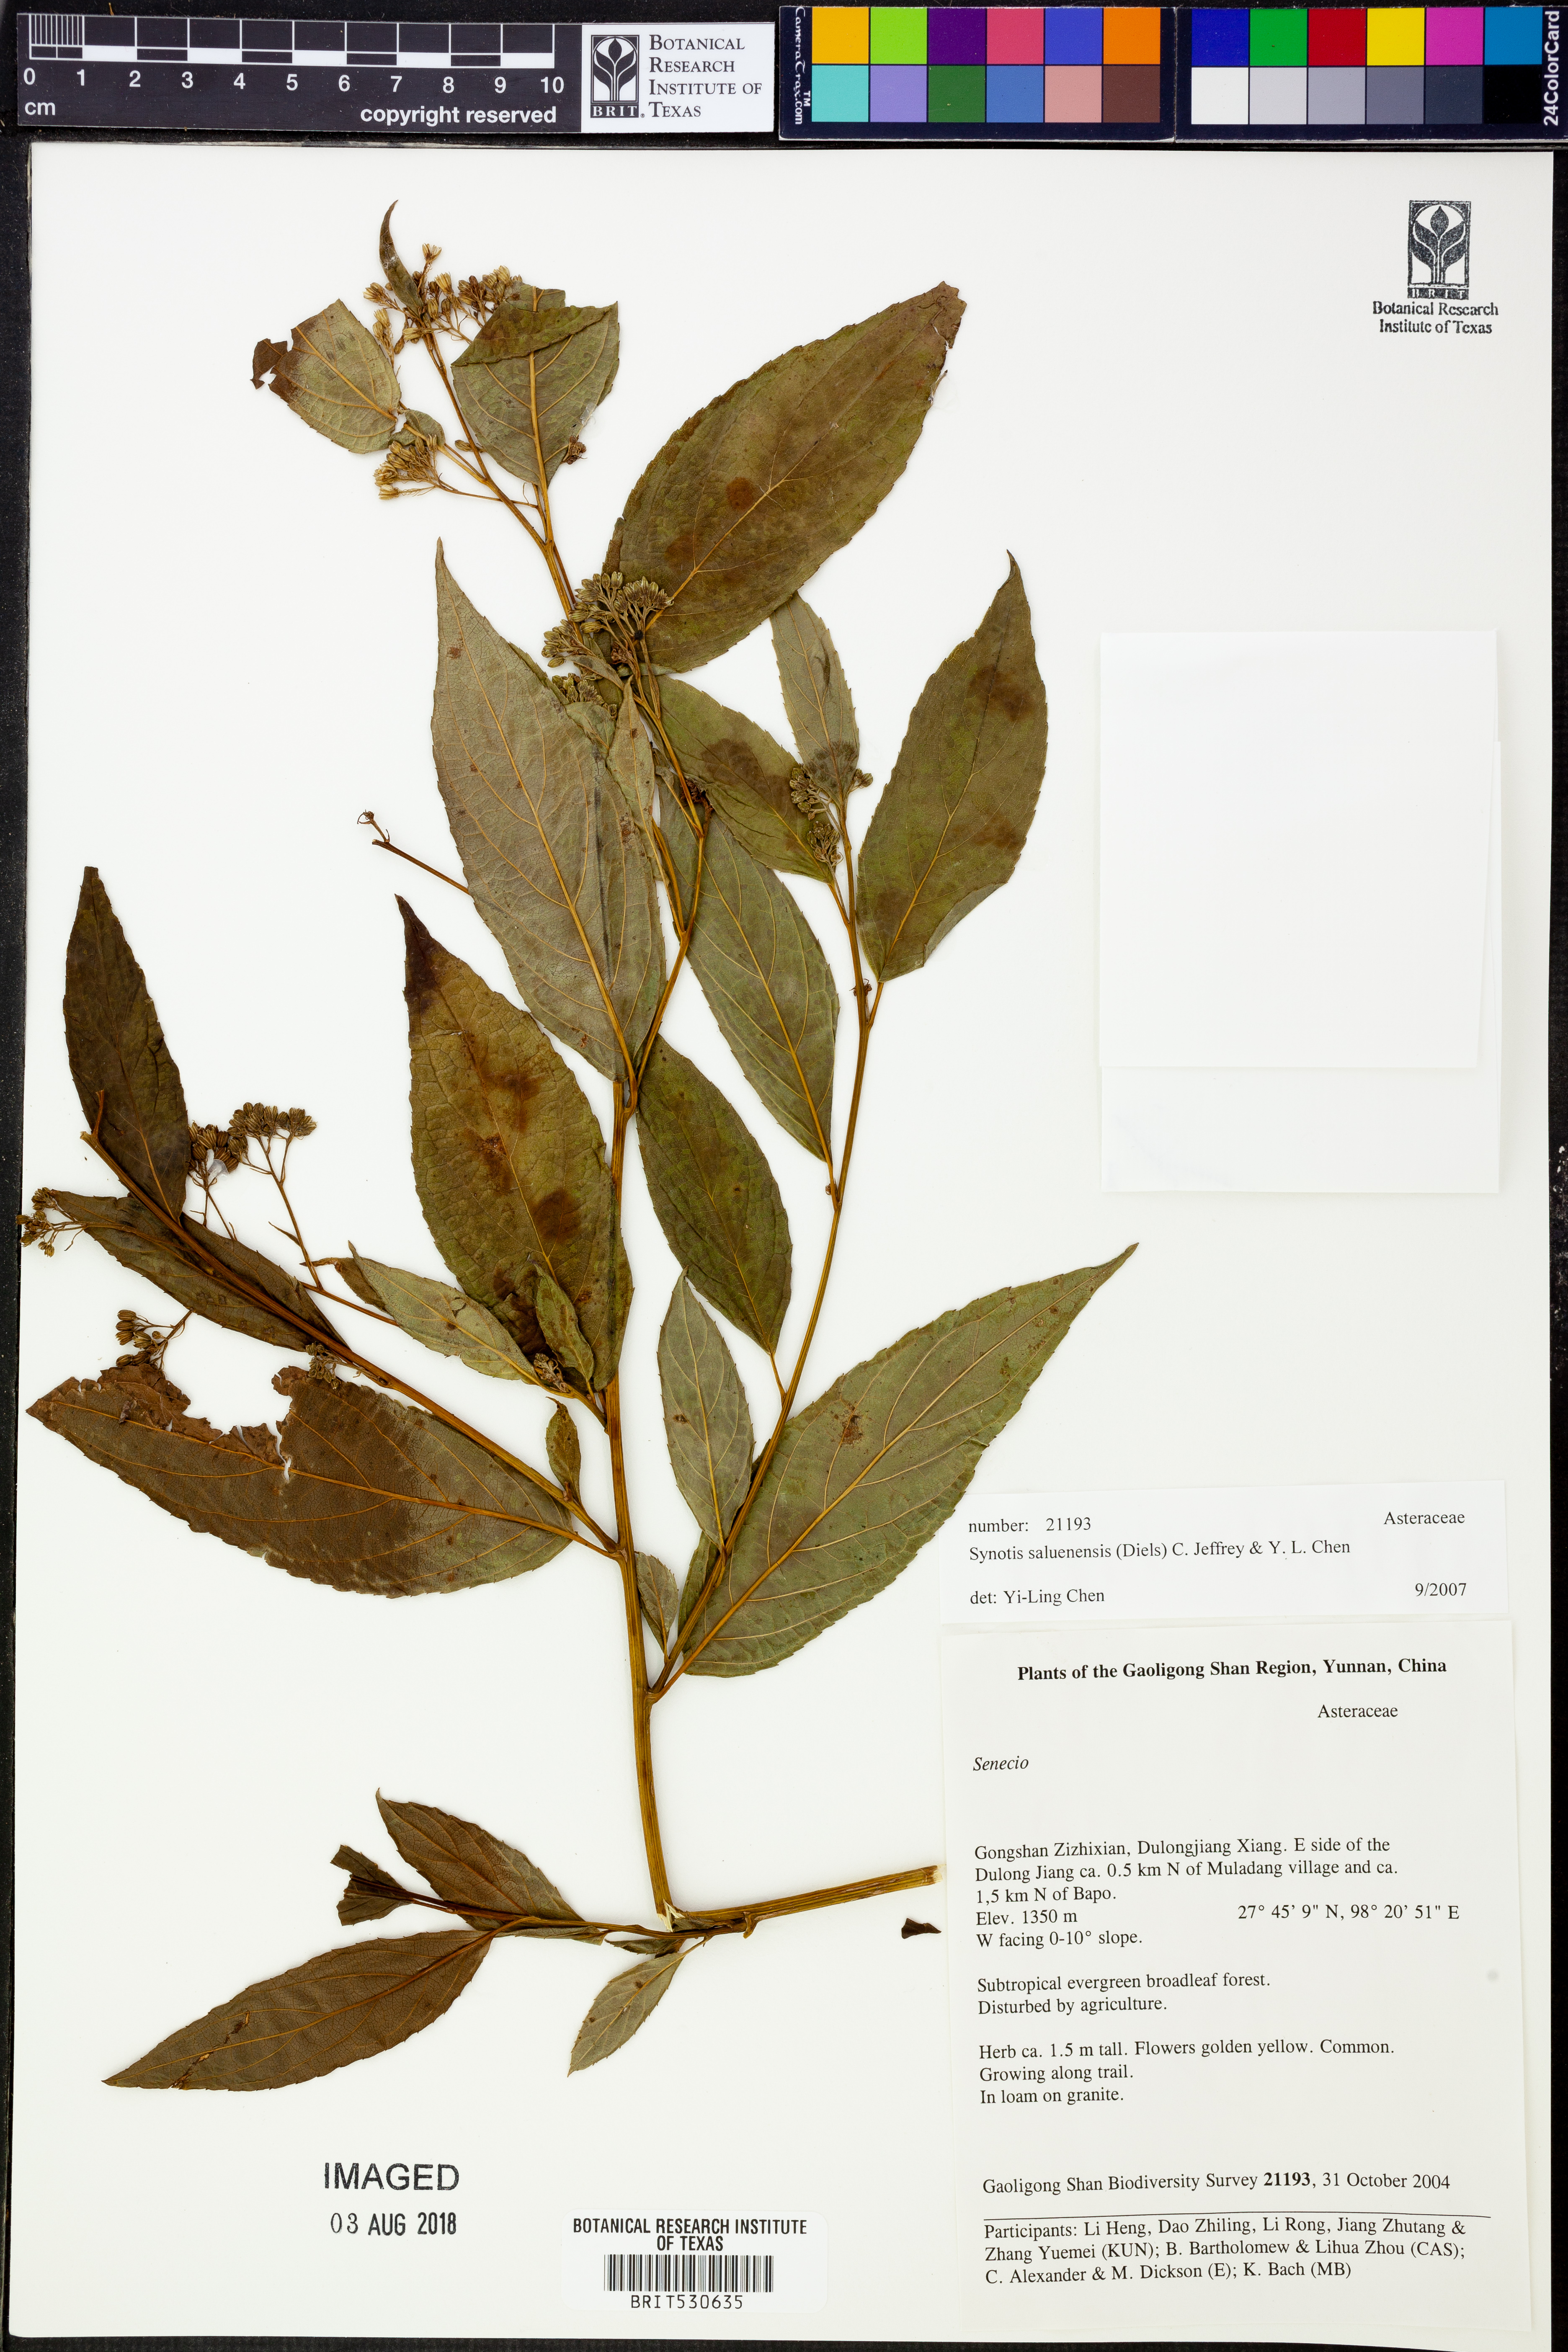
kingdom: Plantae
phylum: Tracheophyta
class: Magnoliopsida
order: Asterales
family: Asteraceae
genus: Synotis
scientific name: Synotis saluenensis
